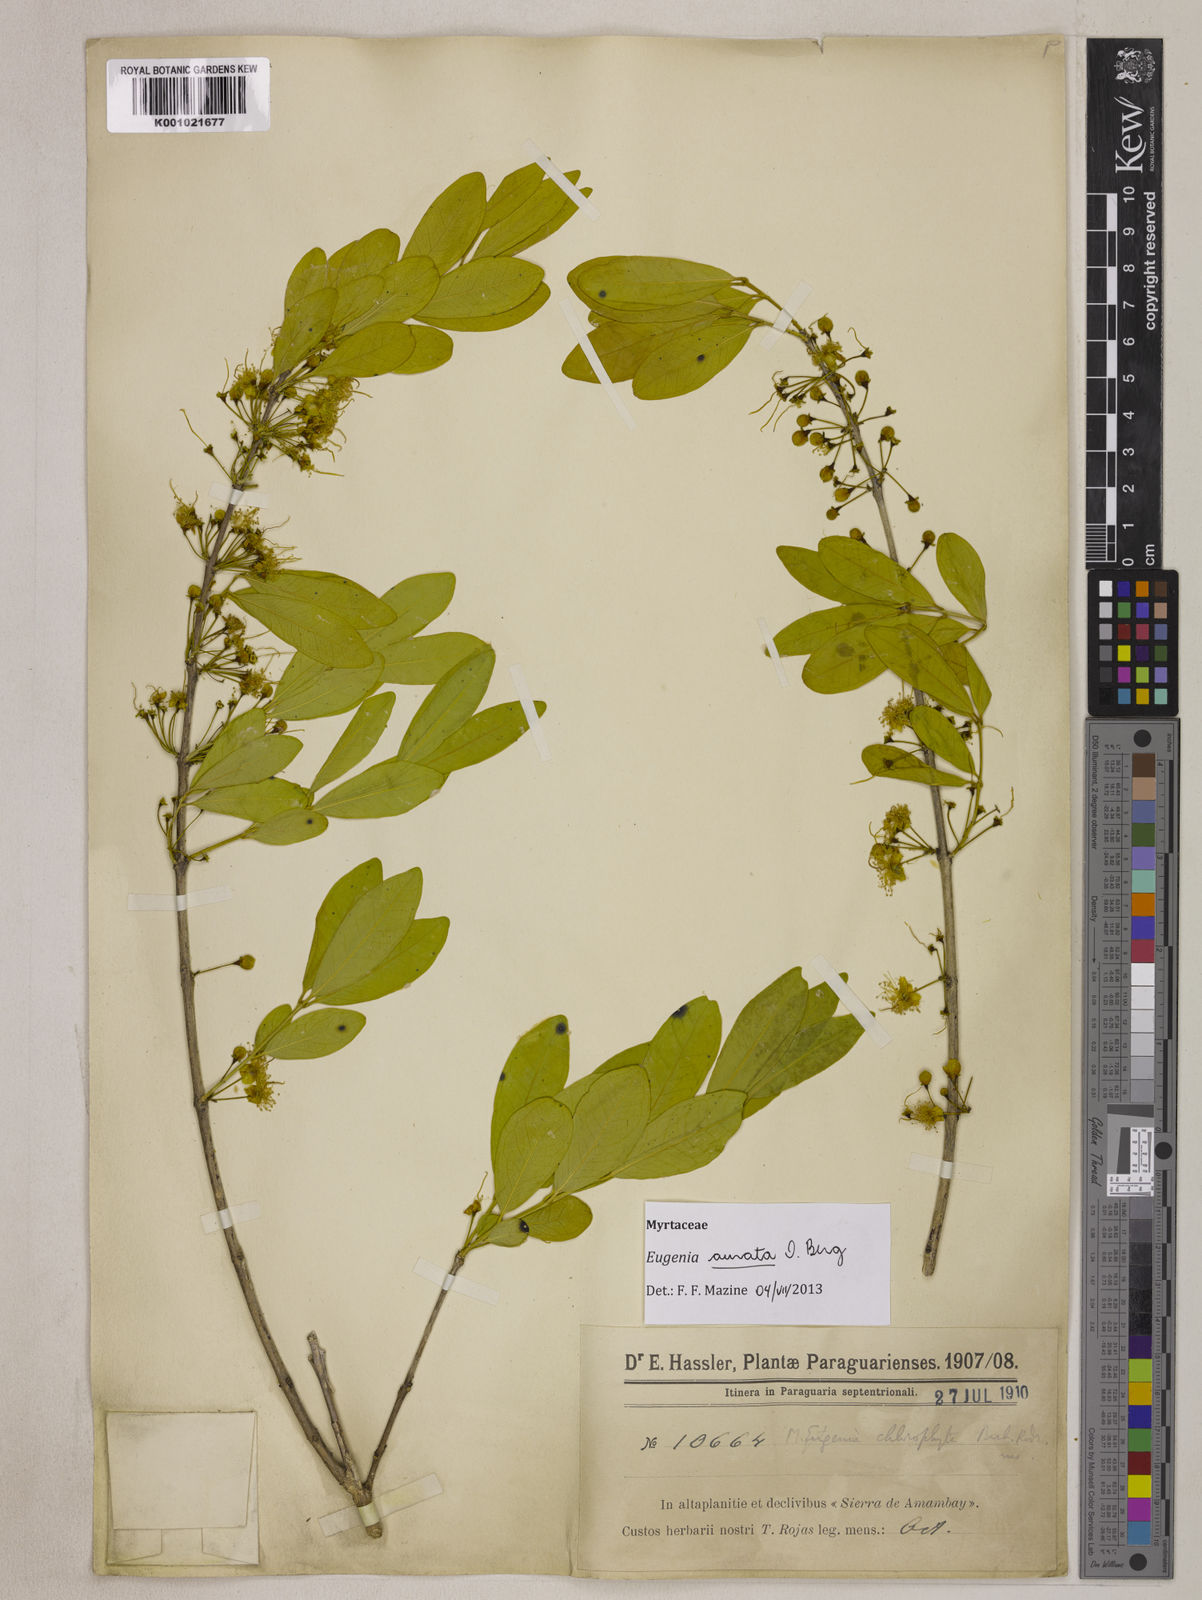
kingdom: Plantae
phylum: Tracheophyta
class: Magnoliopsida
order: Myrtales
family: Myrtaceae
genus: Eugenia
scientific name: Eugenia aurata
